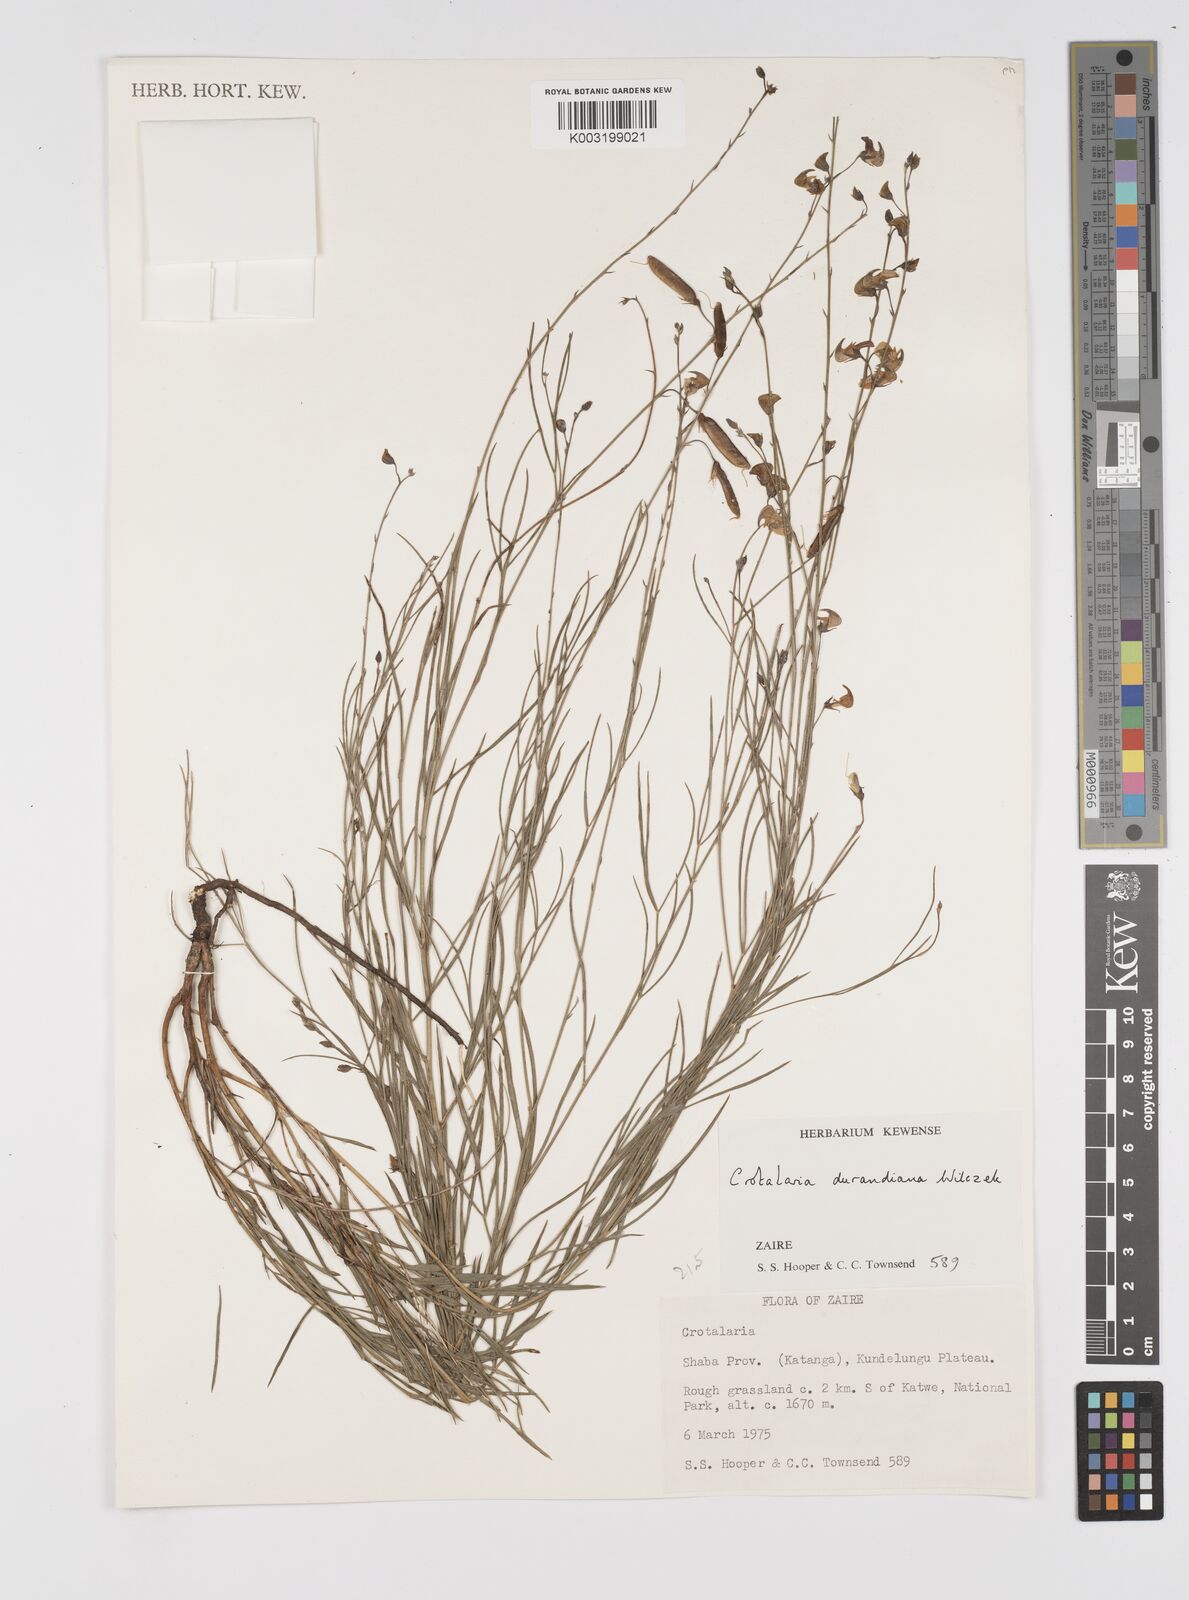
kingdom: Plantae
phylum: Tracheophyta
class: Magnoliopsida
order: Fabales
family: Fabaceae
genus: Crotalaria
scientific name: Crotalaria durandiana
